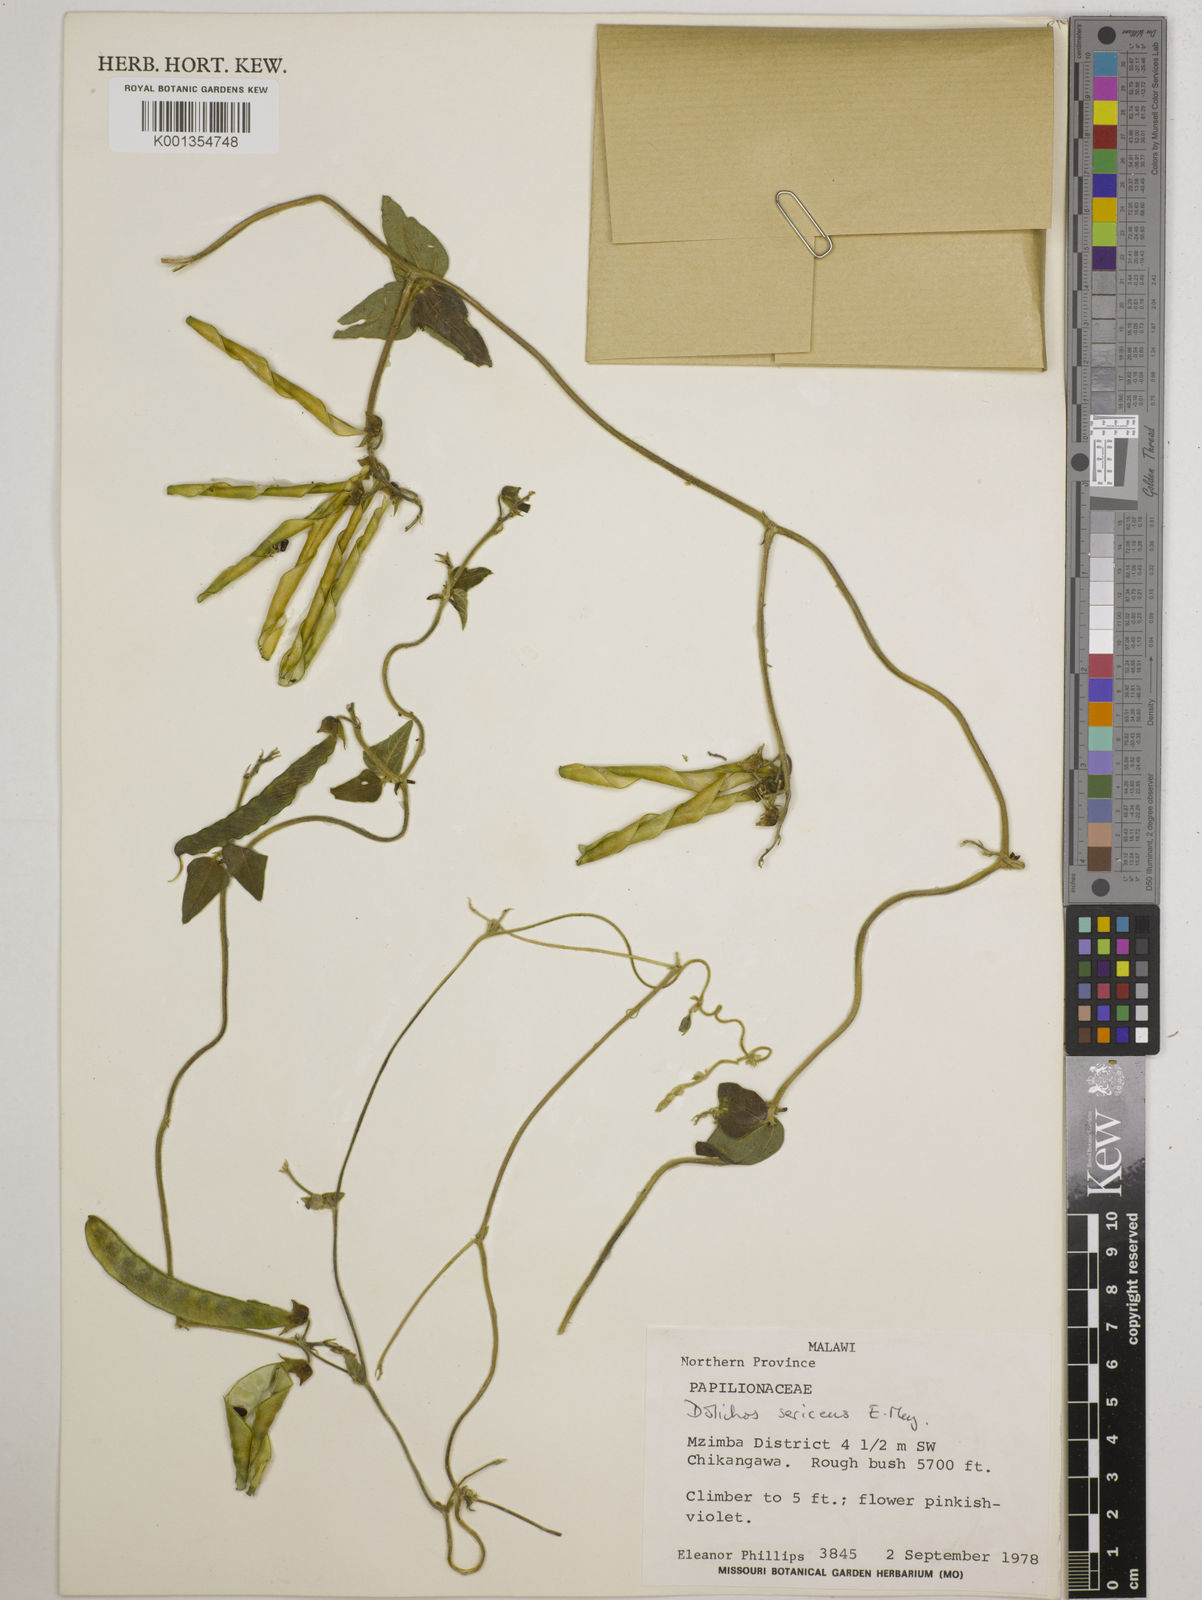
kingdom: Plantae
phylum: Tracheophyta
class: Magnoliopsida
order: Fabales
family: Fabaceae
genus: Dolichos
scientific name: Dolichos
